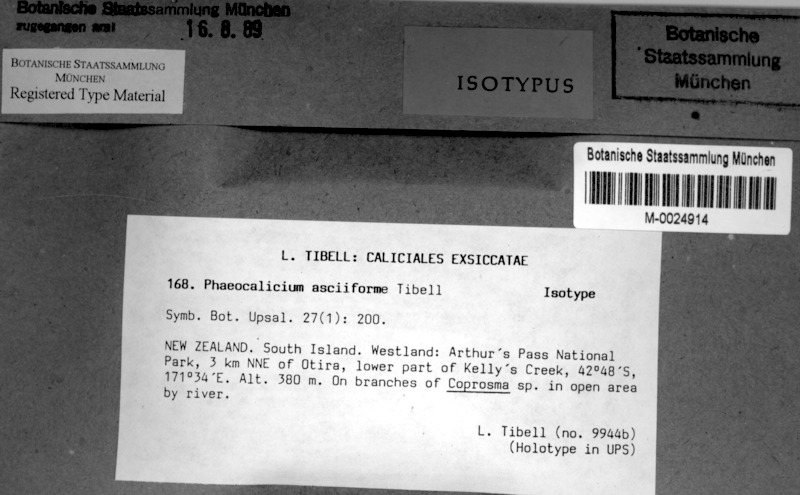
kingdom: Fungi
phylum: Ascomycota
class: Eurotiomycetes
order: Mycocaliciales
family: Mycocaliciaceae
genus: Phaeocalicium
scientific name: Phaeocalicium asciiforme
